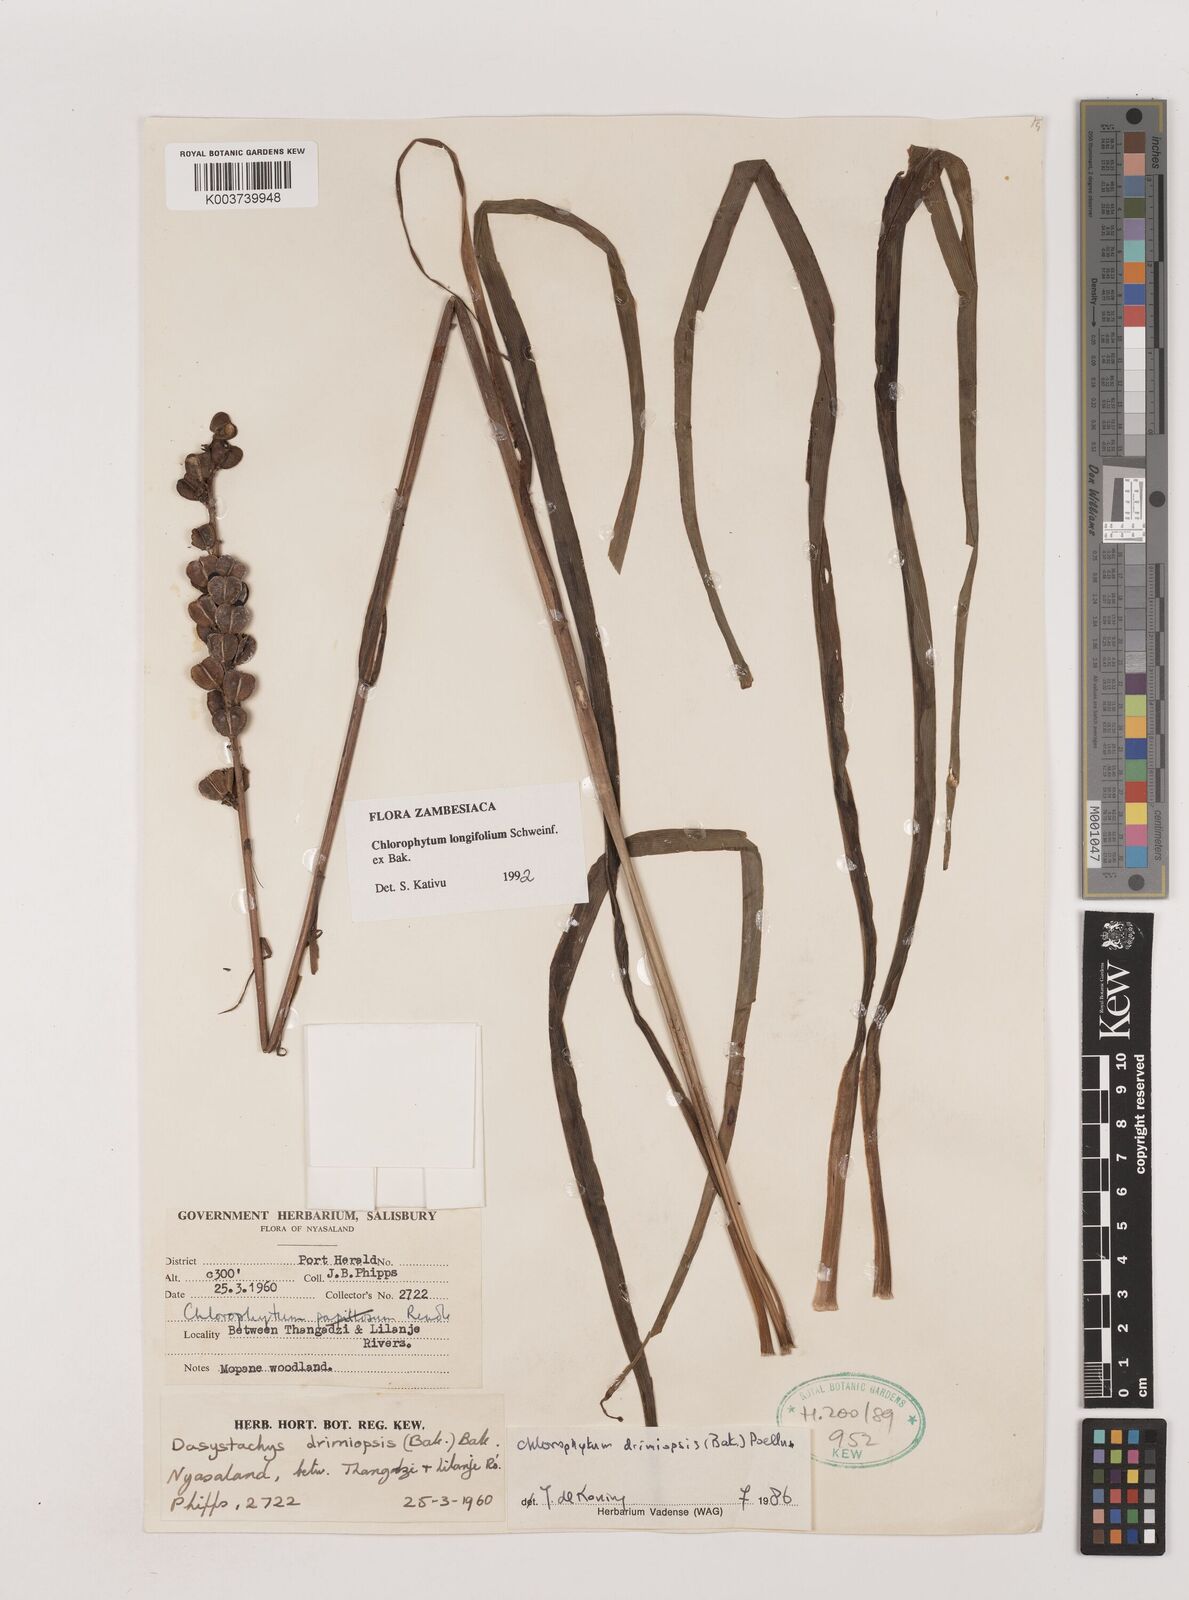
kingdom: Plantae
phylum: Tracheophyta
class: Liliopsida
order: Asparagales
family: Asparagaceae
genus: Chlorophytum
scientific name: Chlorophytum longifolium
